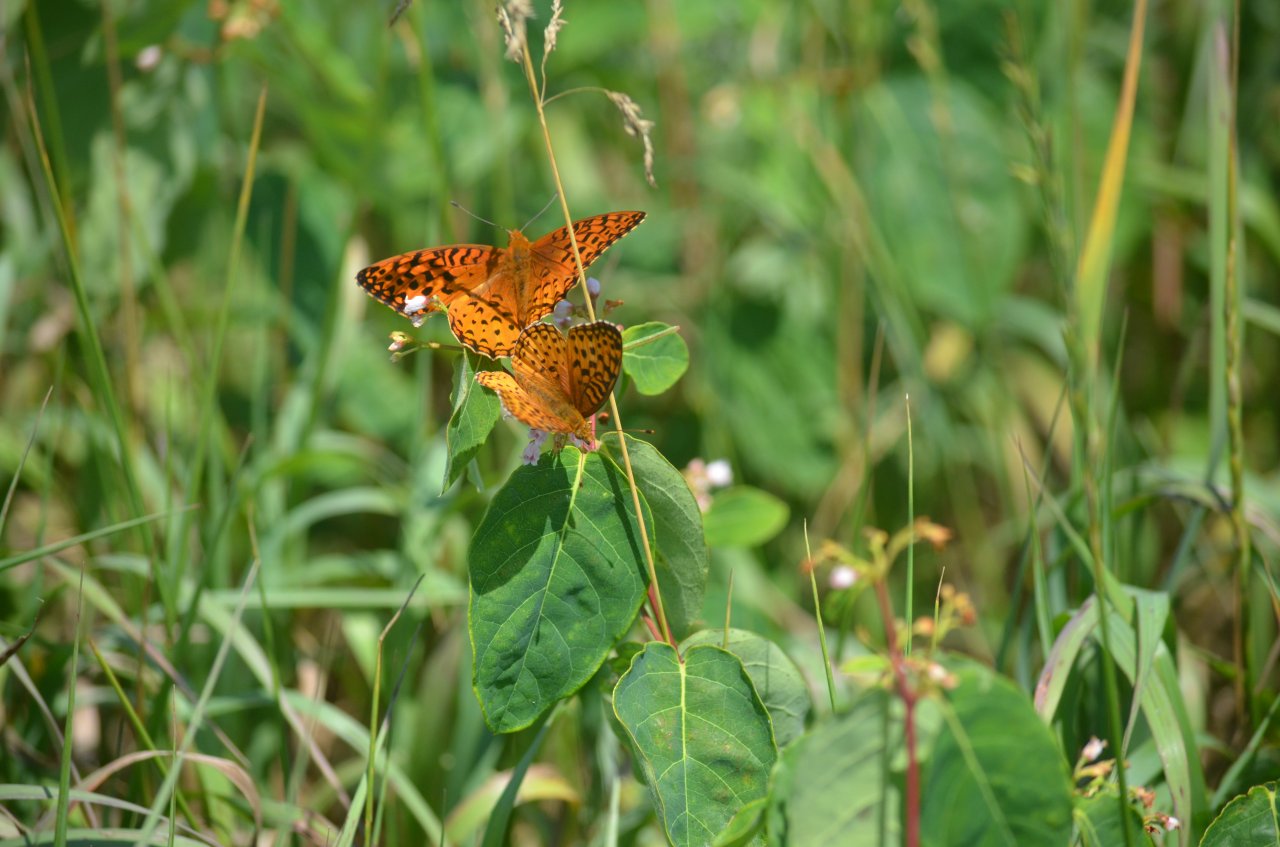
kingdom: Animalia
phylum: Arthropoda
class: Insecta
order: Lepidoptera
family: Nymphalidae
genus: Speyeria
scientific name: Speyeria aphrodite
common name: Aphrodite Fritillary
